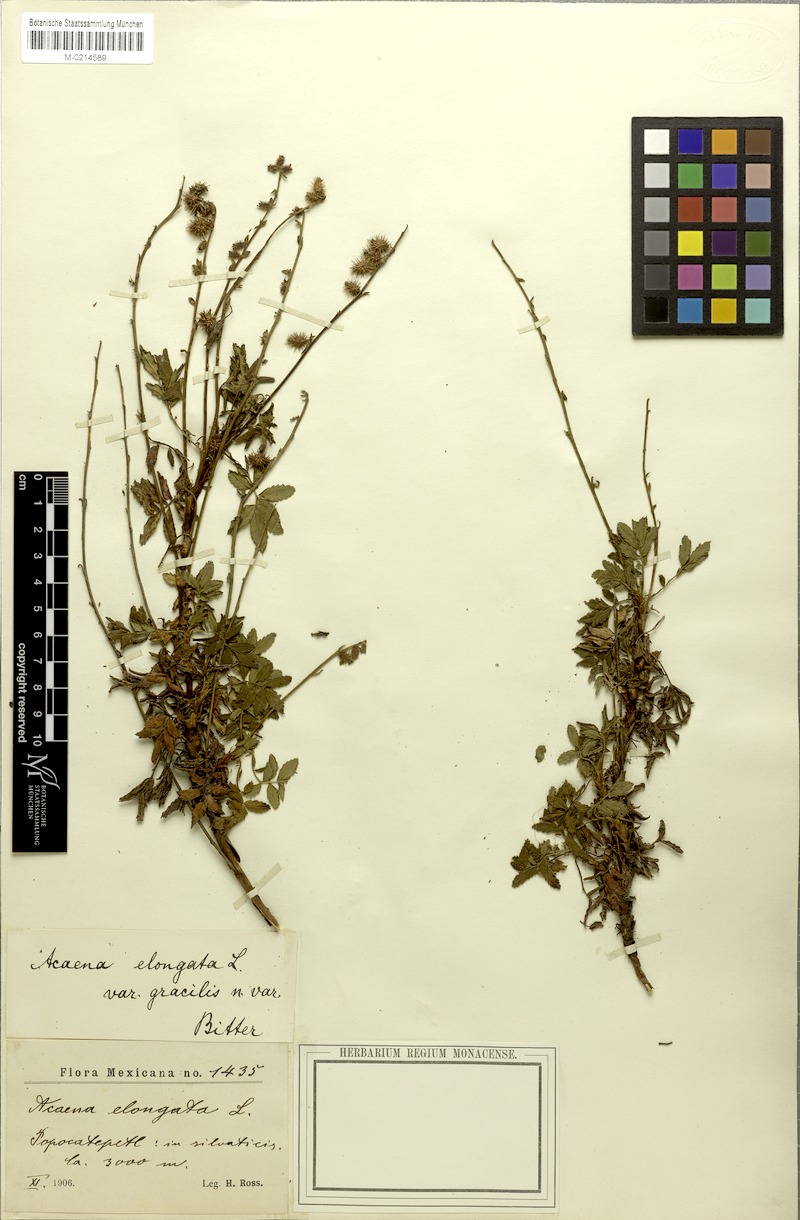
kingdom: Plantae
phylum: Tracheophyta
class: Magnoliopsida
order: Rosales
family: Rosaceae
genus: Acaena
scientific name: Acaena elongata
